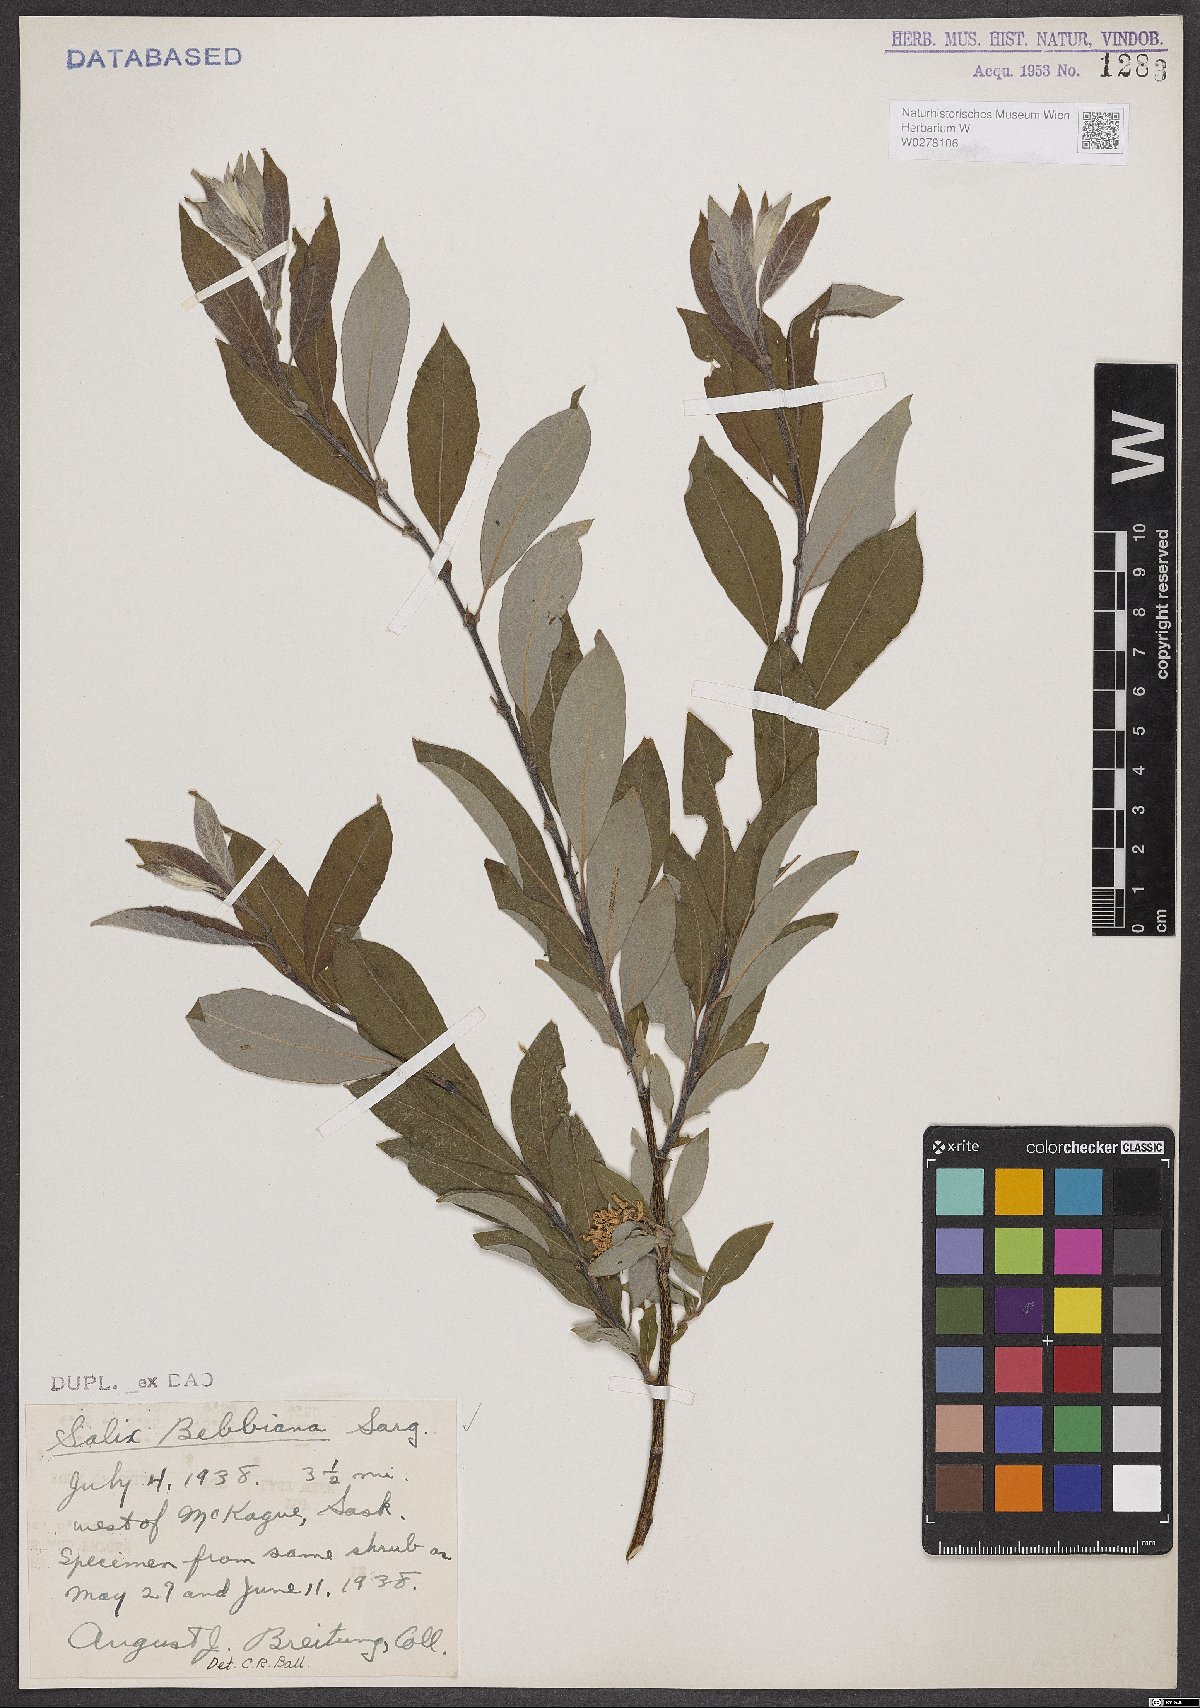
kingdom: Plantae
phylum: Tracheophyta
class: Magnoliopsida
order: Malpighiales
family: Salicaceae
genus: Salix
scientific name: Salix bebbiana
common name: Bebb's willow
